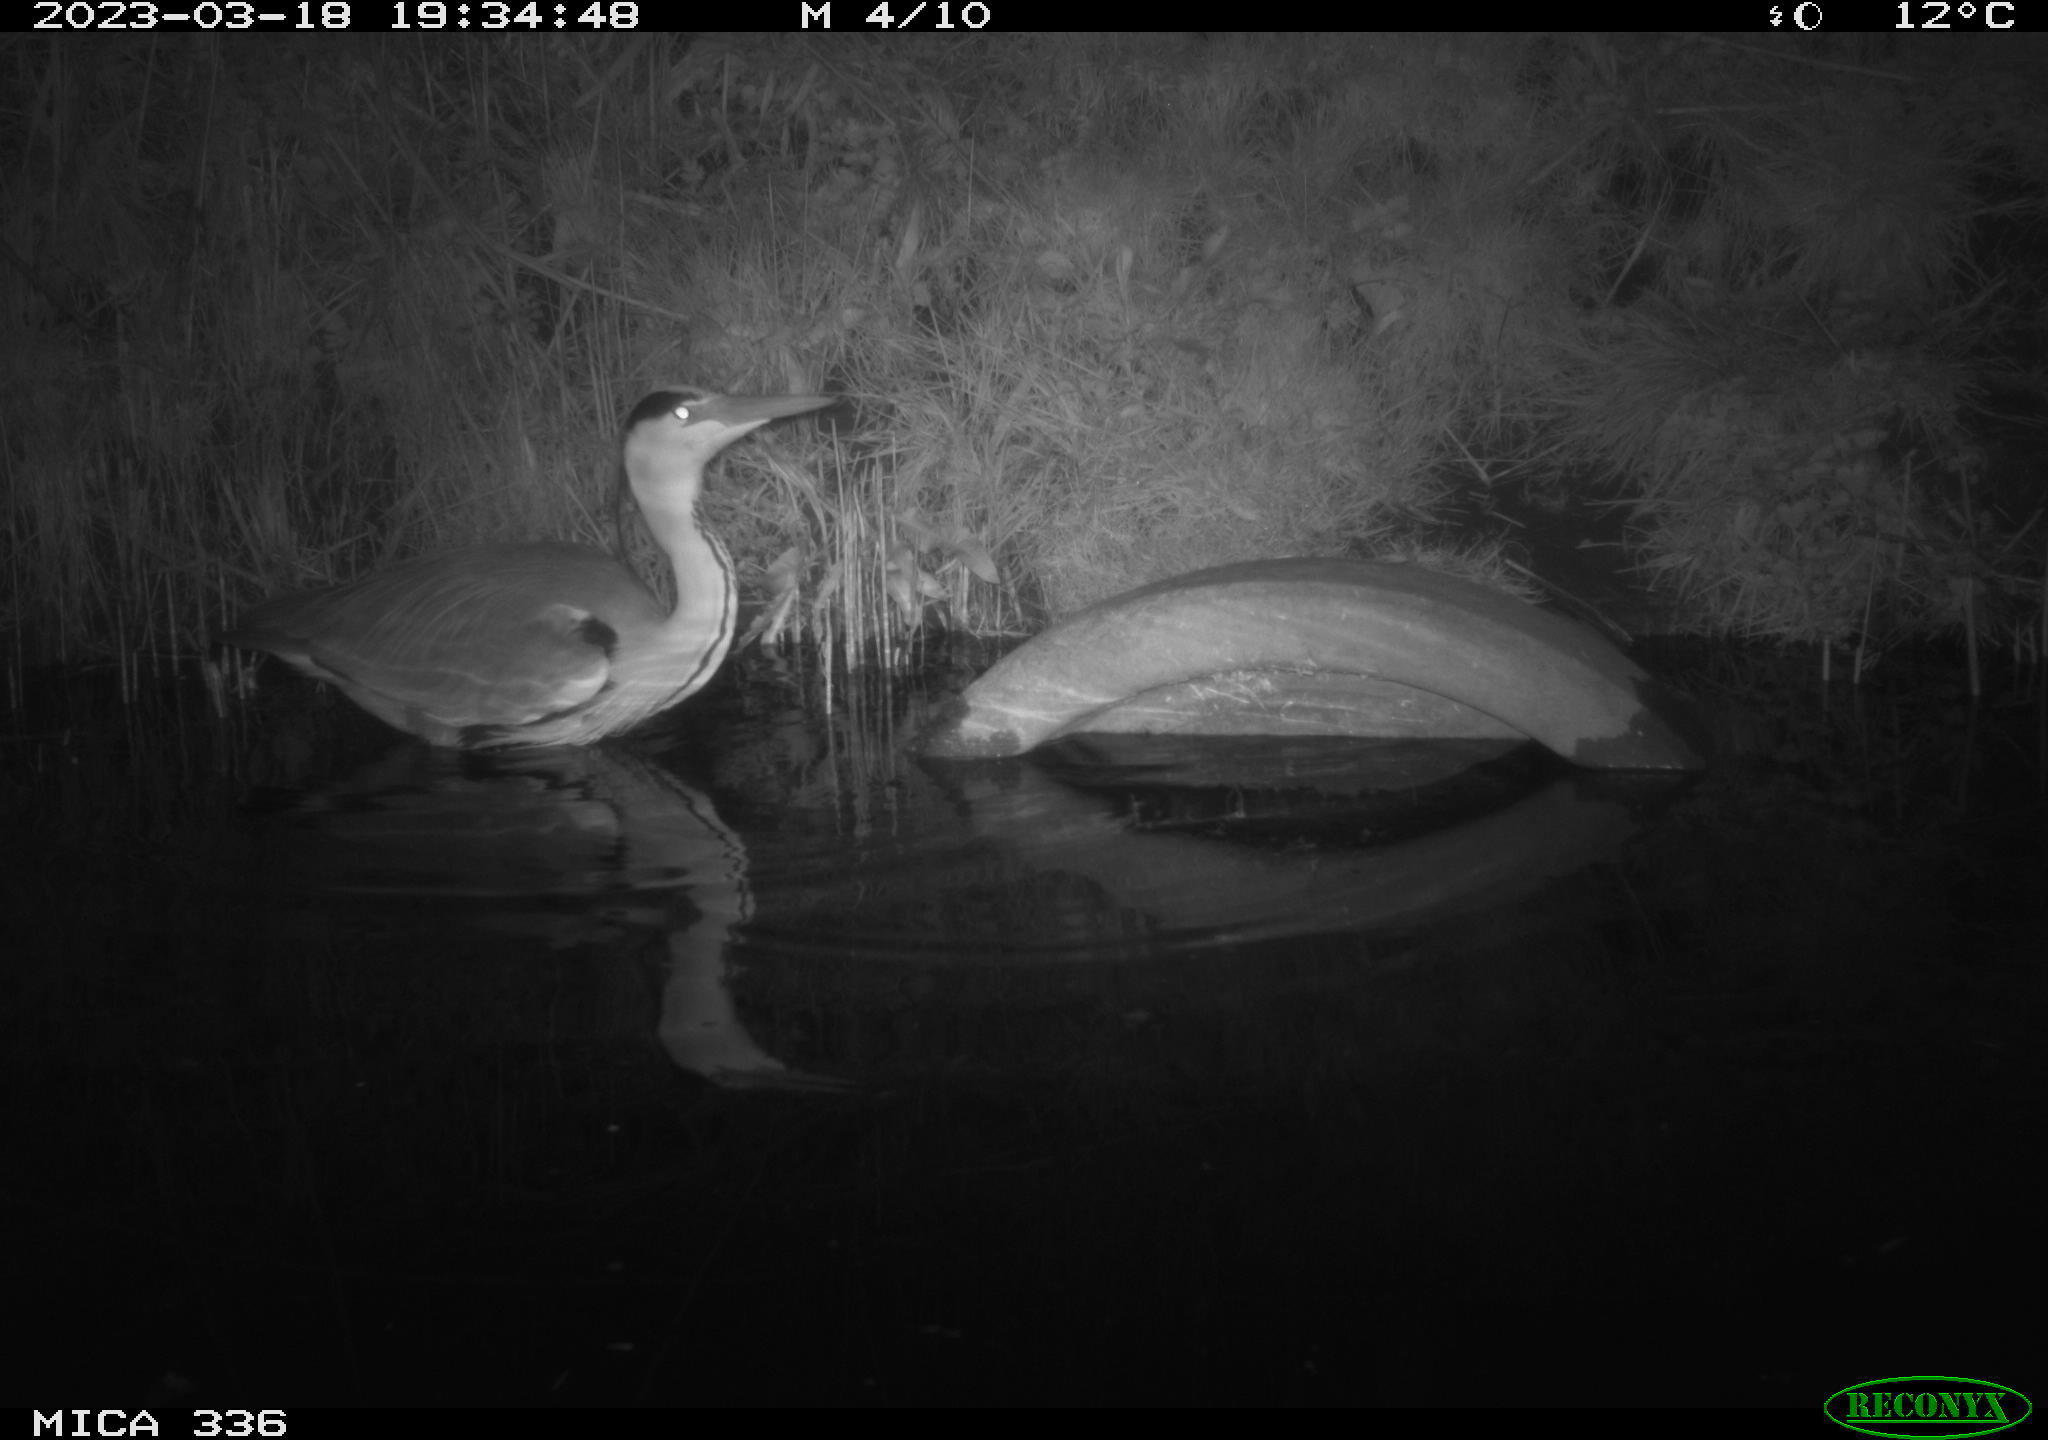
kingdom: Animalia
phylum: Chordata
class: Aves
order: Pelecaniformes
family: Ardeidae
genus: Ardea
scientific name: Ardea cinerea
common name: Grey heron
